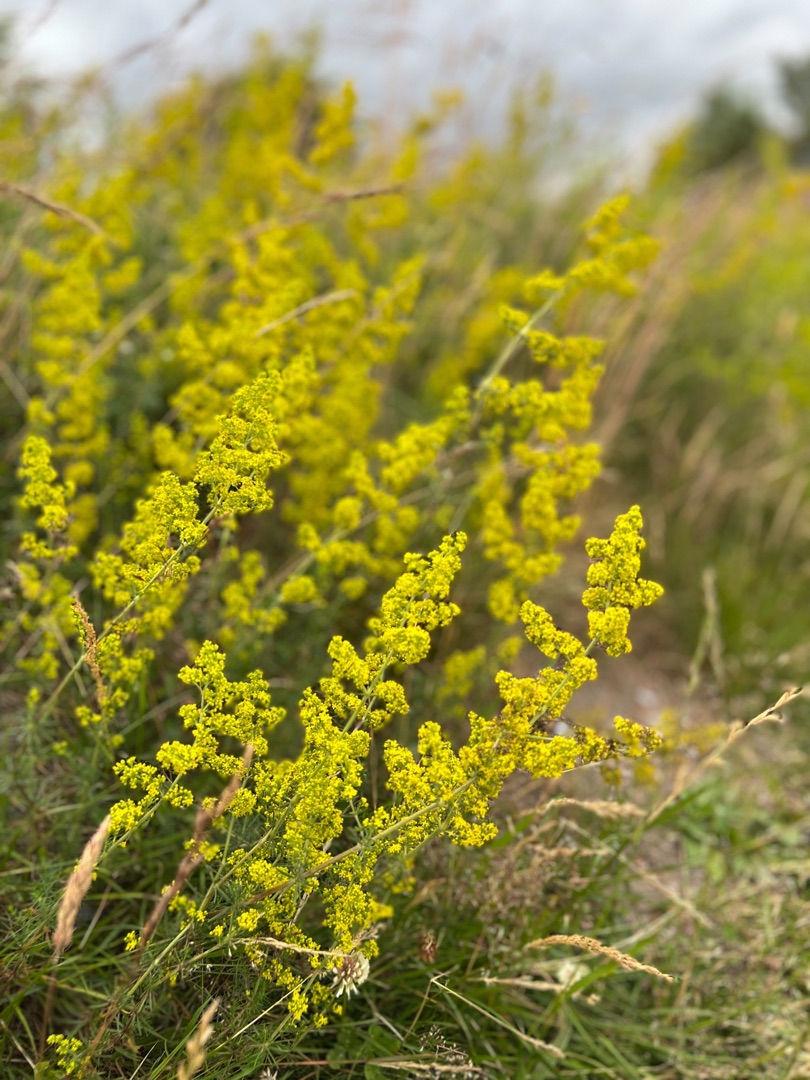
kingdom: Plantae
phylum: Tracheophyta
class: Magnoliopsida
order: Gentianales
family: Rubiaceae
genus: Galium
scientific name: Galium verum
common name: Gul snerre
